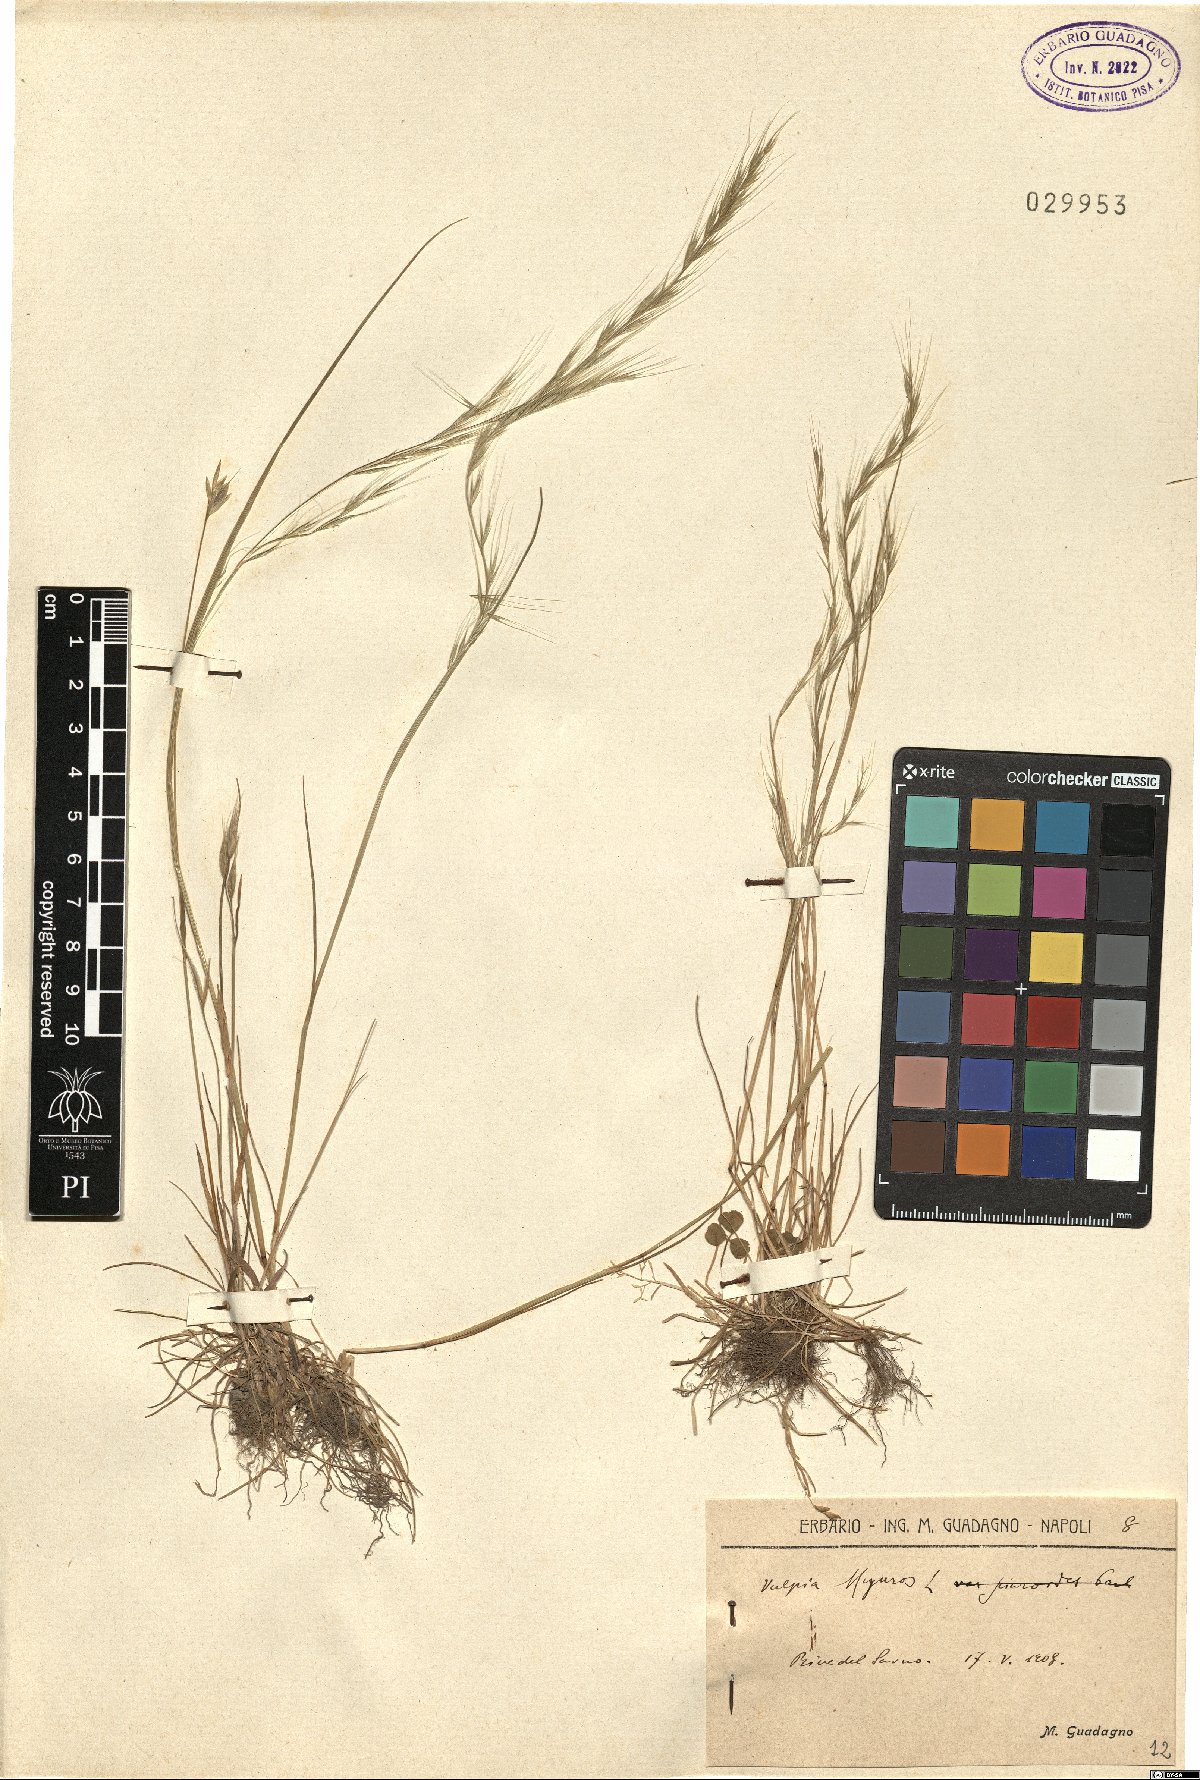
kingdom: Plantae
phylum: Tracheophyta
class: Liliopsida
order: Poales
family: Poaceae
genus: Festuca
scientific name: Festuca myuros
